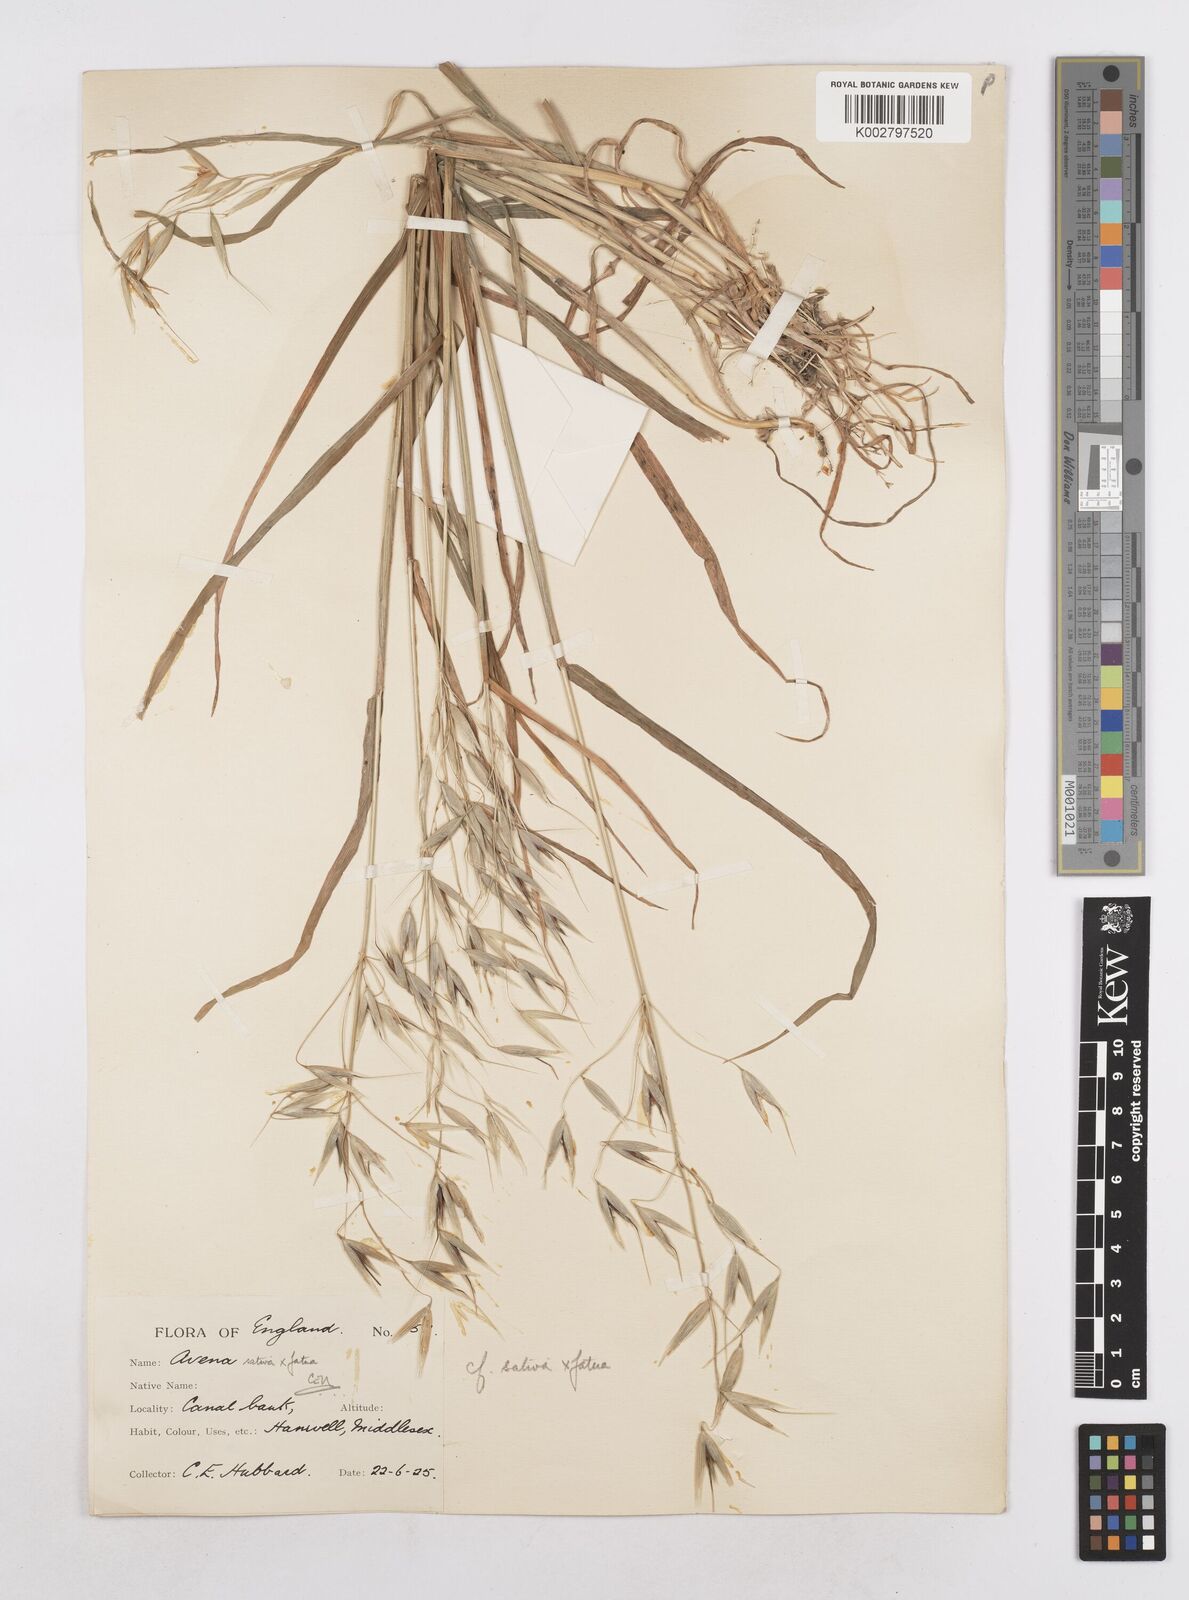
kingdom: Plantae
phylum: Tracheophyta
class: Liliopsida
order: Poales
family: Poaceae
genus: Avena
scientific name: Avena fatua
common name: Wild oat
